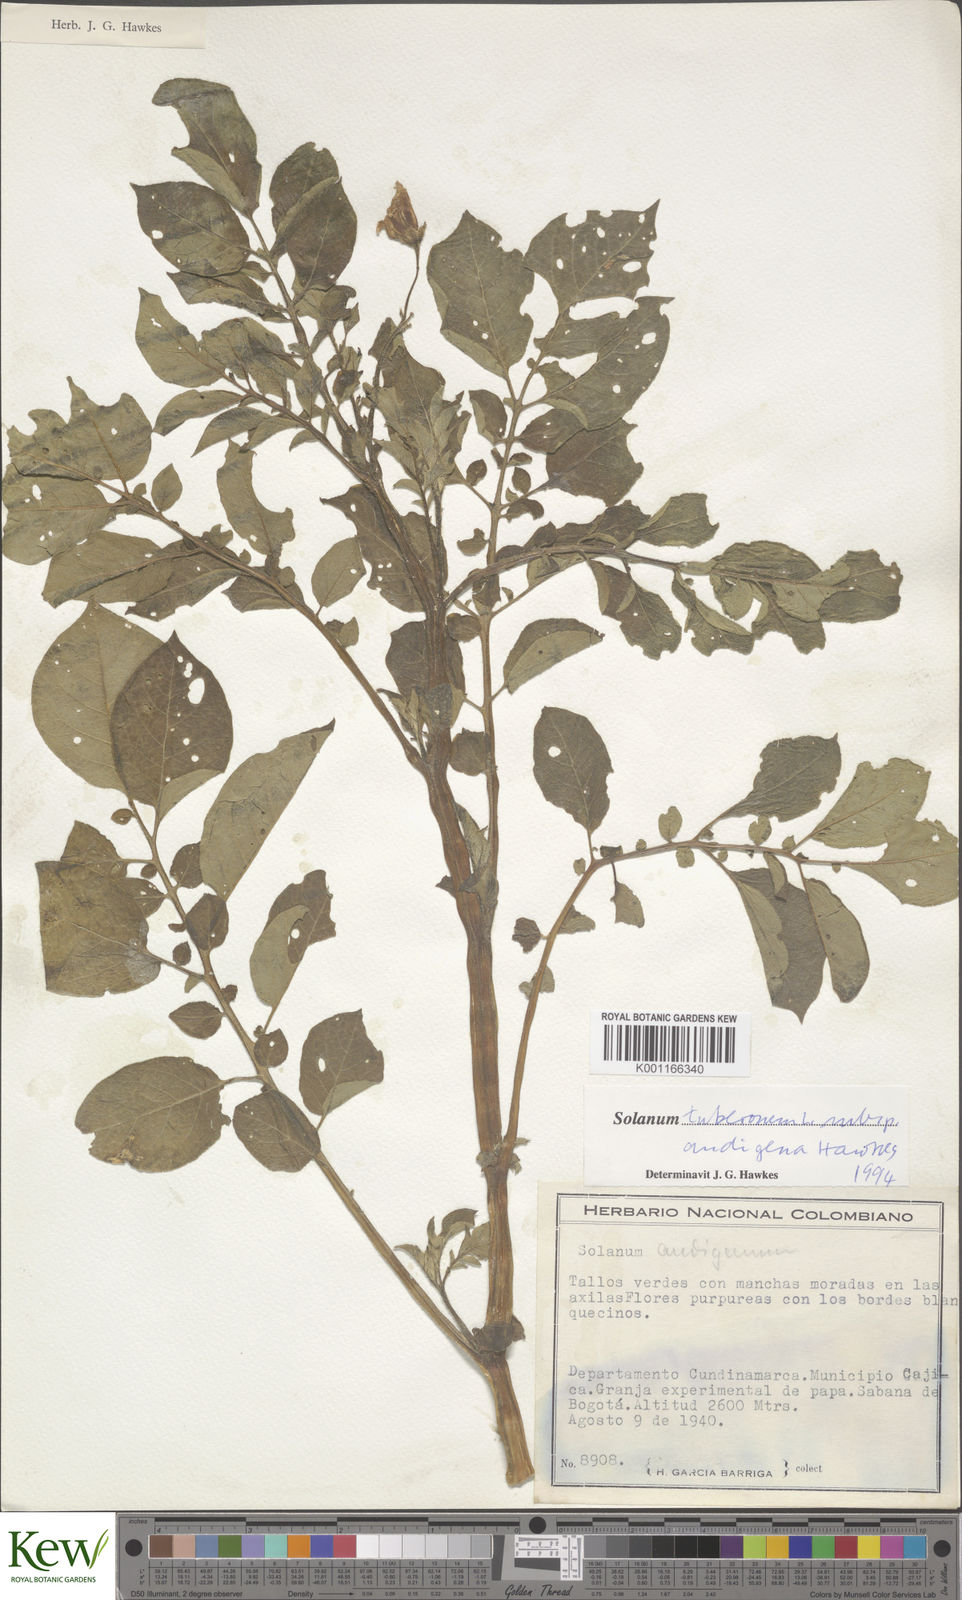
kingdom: Plantae
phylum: Tracheophyta
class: Magnoliopsida
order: Solanales
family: Solanaceae
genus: Solanum
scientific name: Solanum tuberosum
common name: Potato
